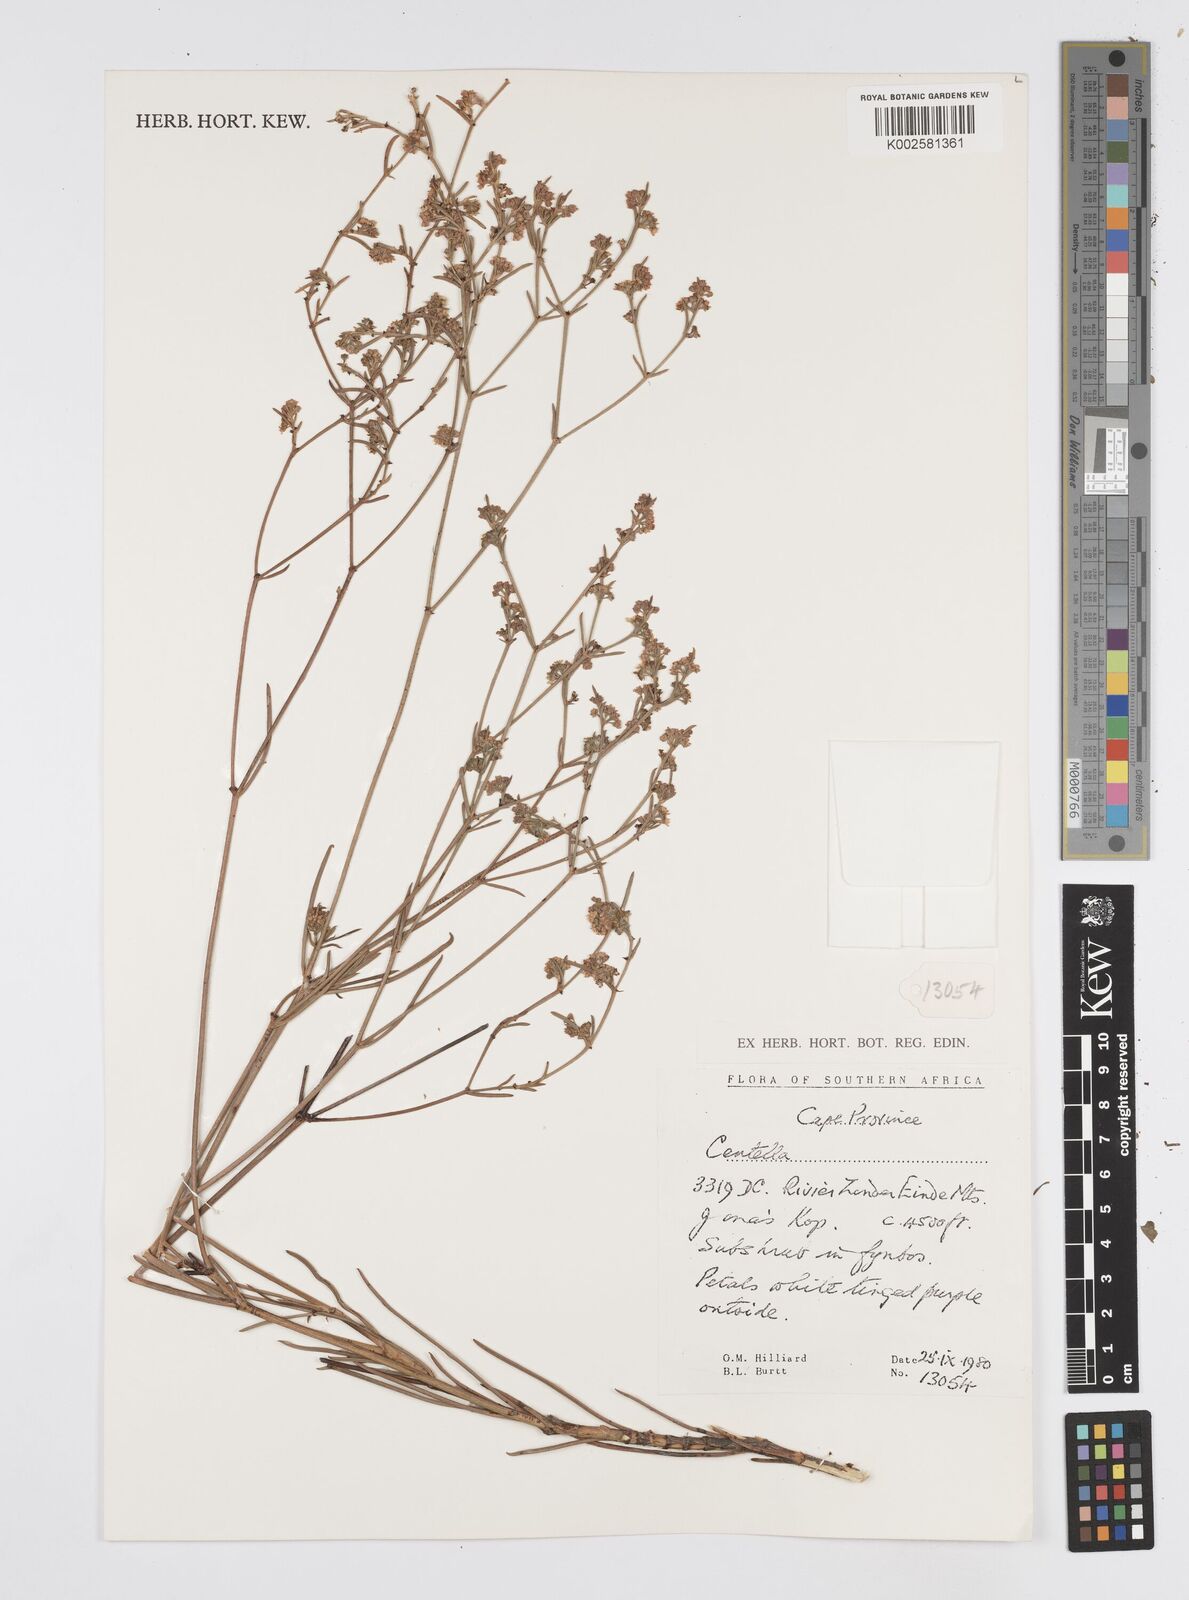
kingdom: Plantae
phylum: Tracheophyta
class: Magnoliopsida
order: Apiales
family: Apiaceae
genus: Centella
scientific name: Centella
